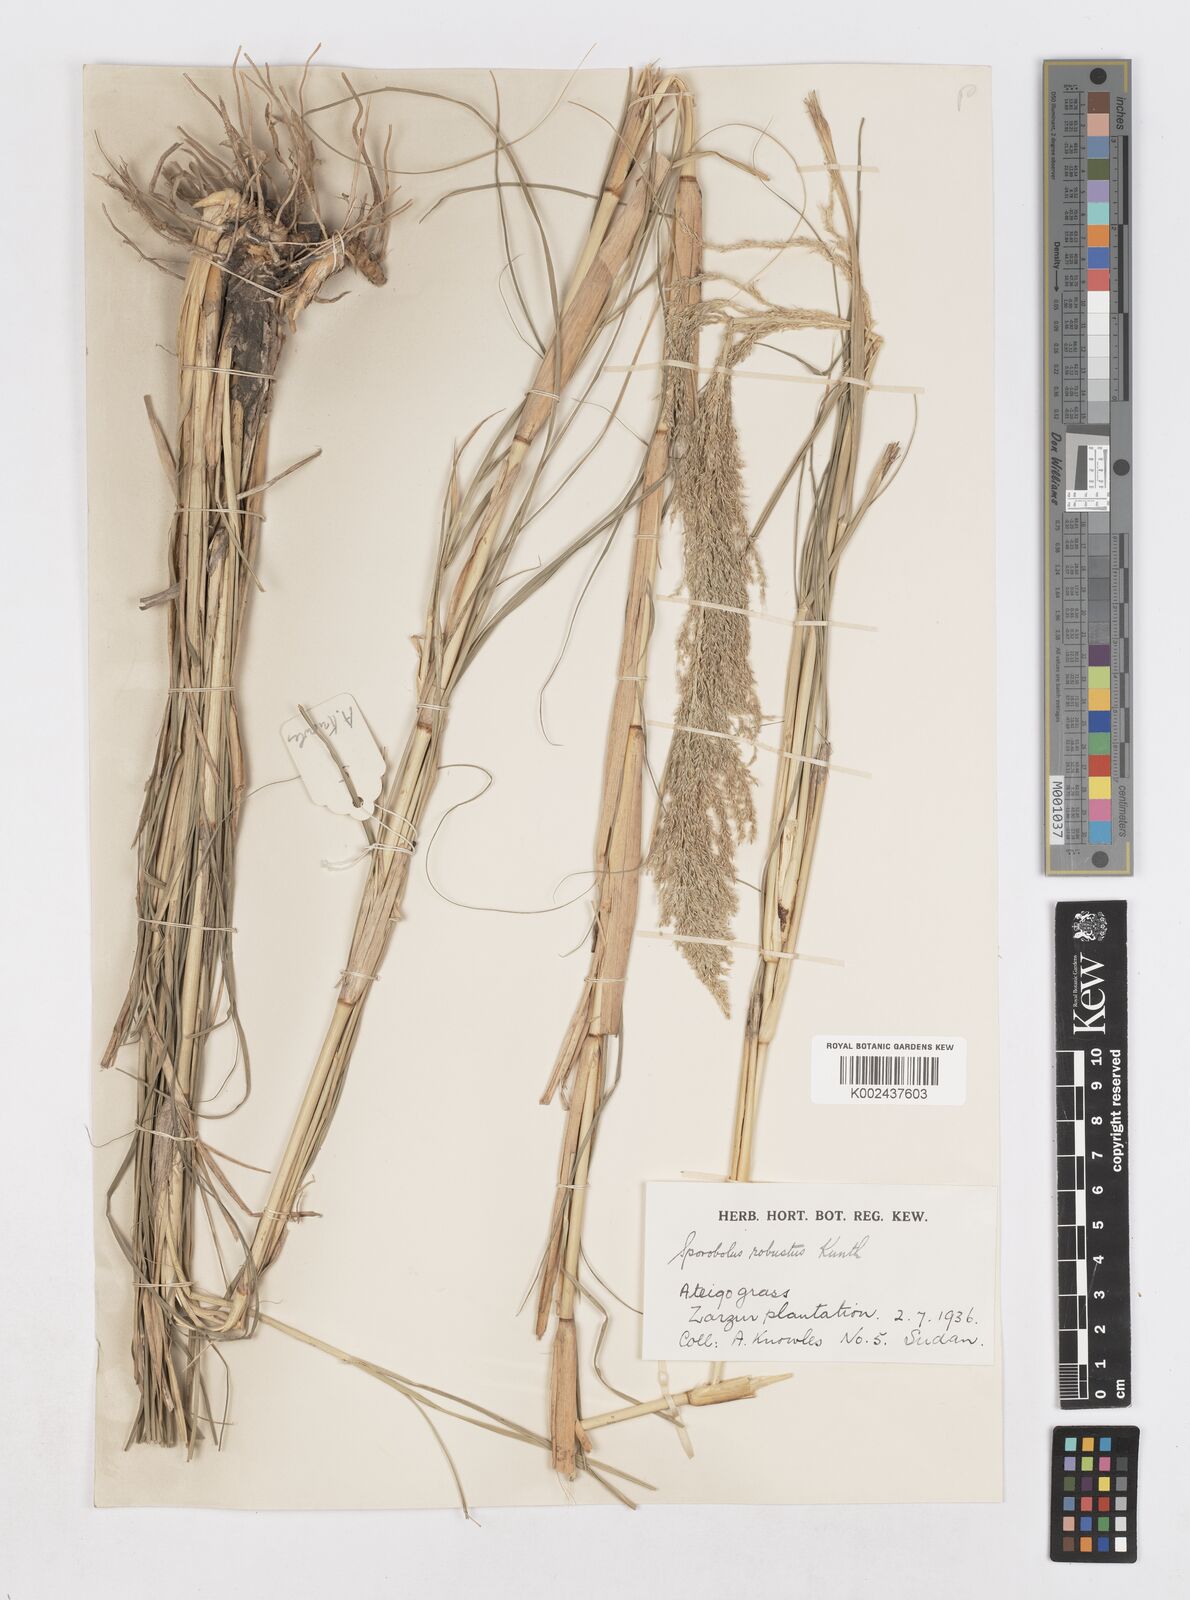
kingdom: Plantae
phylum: Tracheophyta
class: Liliopsida
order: Poales
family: Poaceae
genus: Sporobolus
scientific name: Sporobolus consimilis
